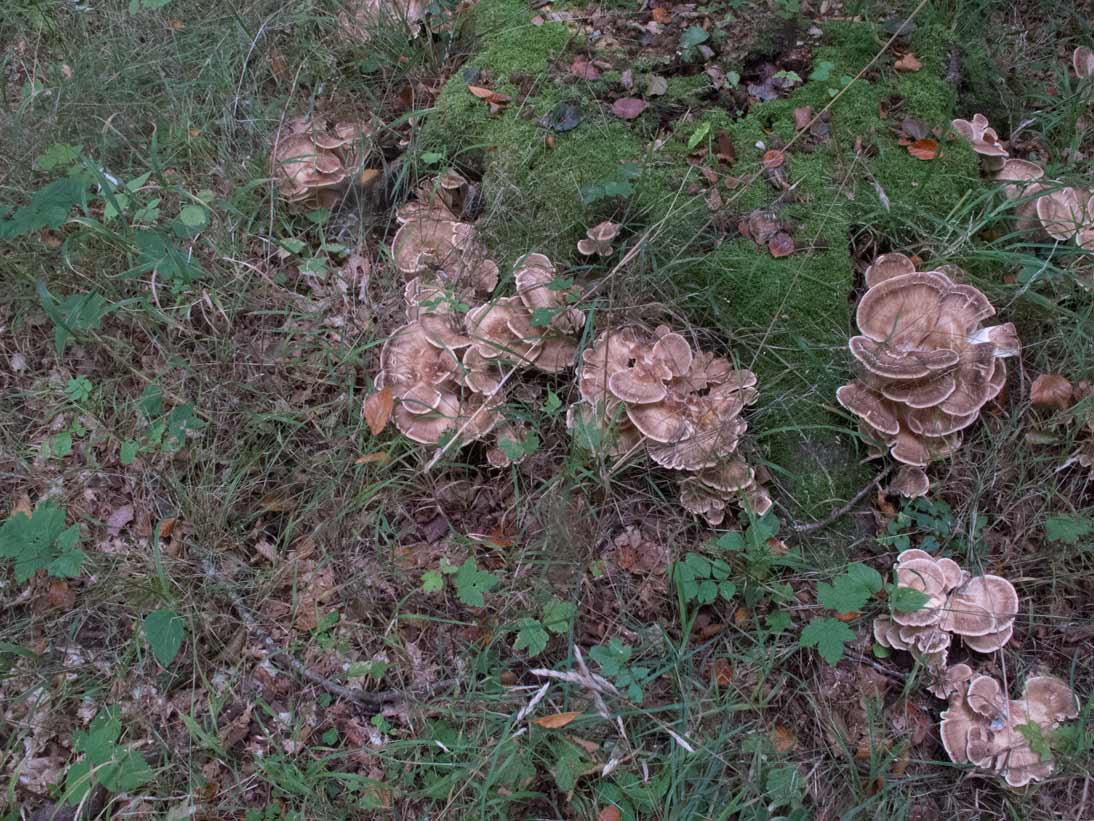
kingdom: Fungi
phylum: Basidiomycota
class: Agaricomycetes
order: Polyporales
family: Meripilaceae
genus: Meripilus
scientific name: Meripilus giganteus
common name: kæmpeporesvamp
